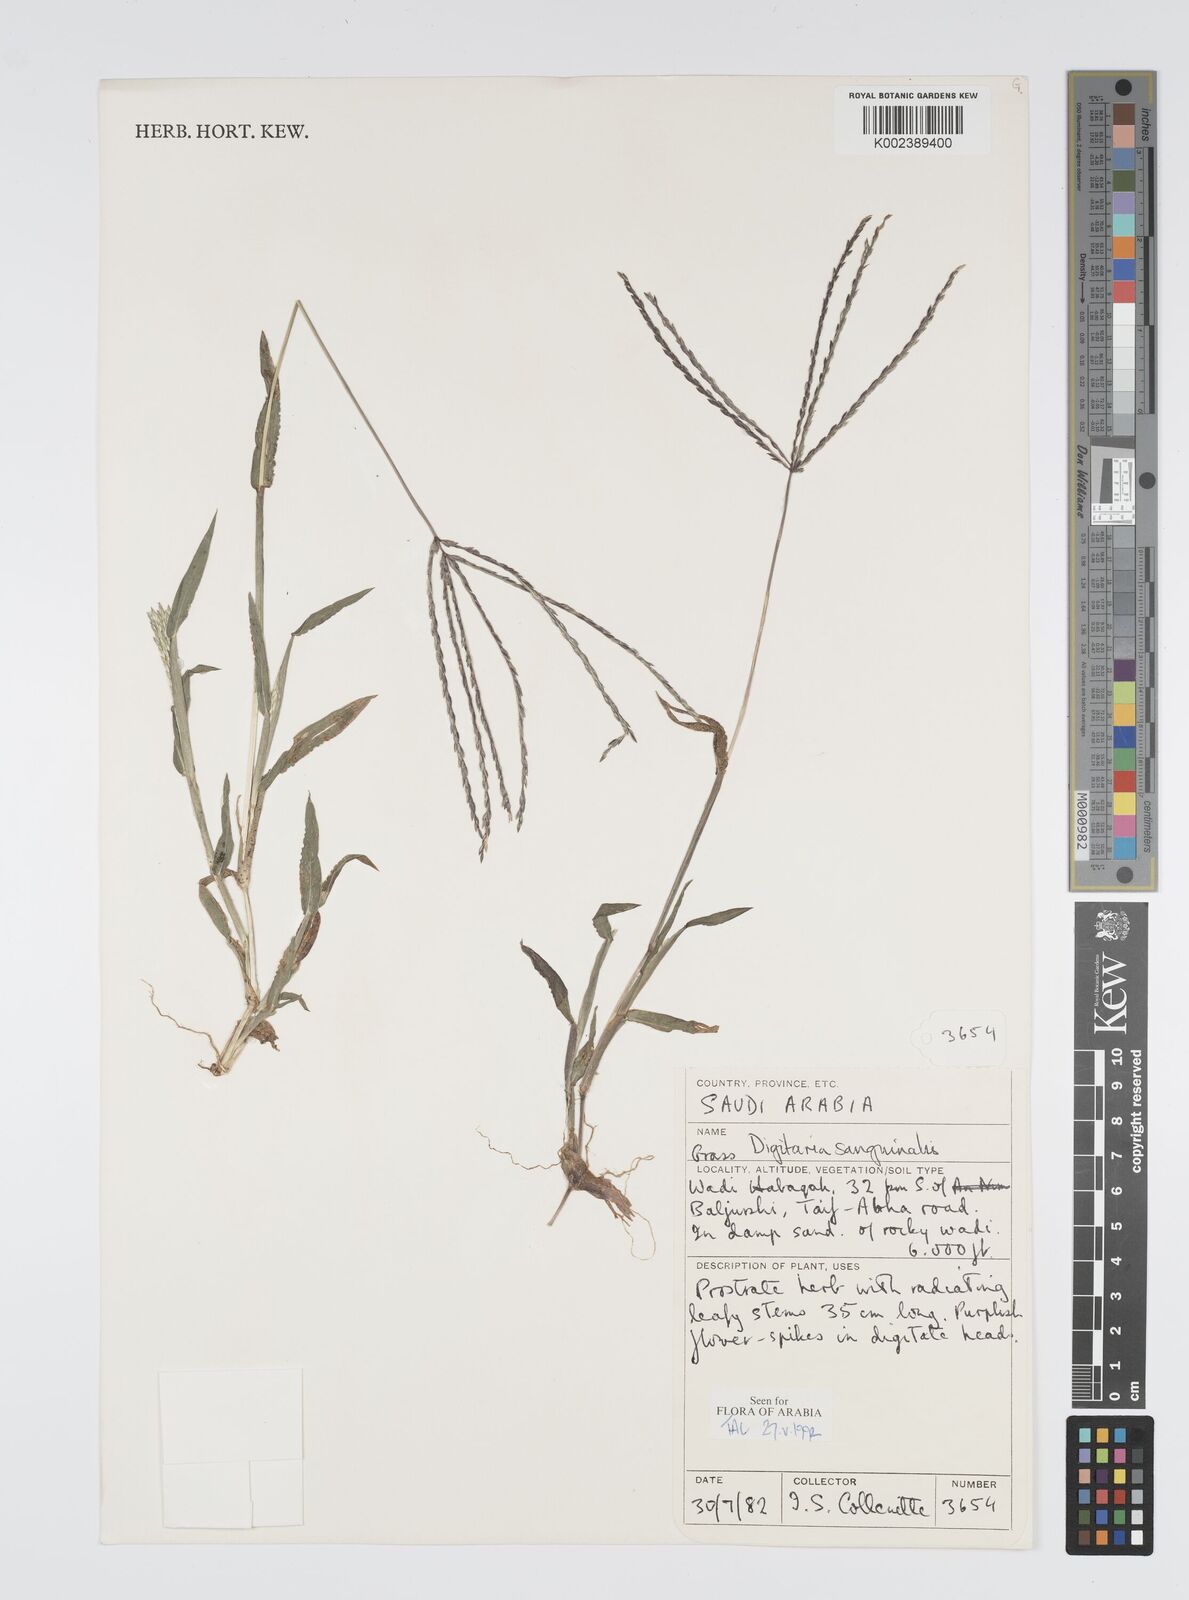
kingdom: Plantae
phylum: Tracheophyta
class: Liliopsida
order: Poales
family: Poaceae
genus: Digitaria
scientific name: Digitaria sanguinalis
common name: Hairy crabgrass
